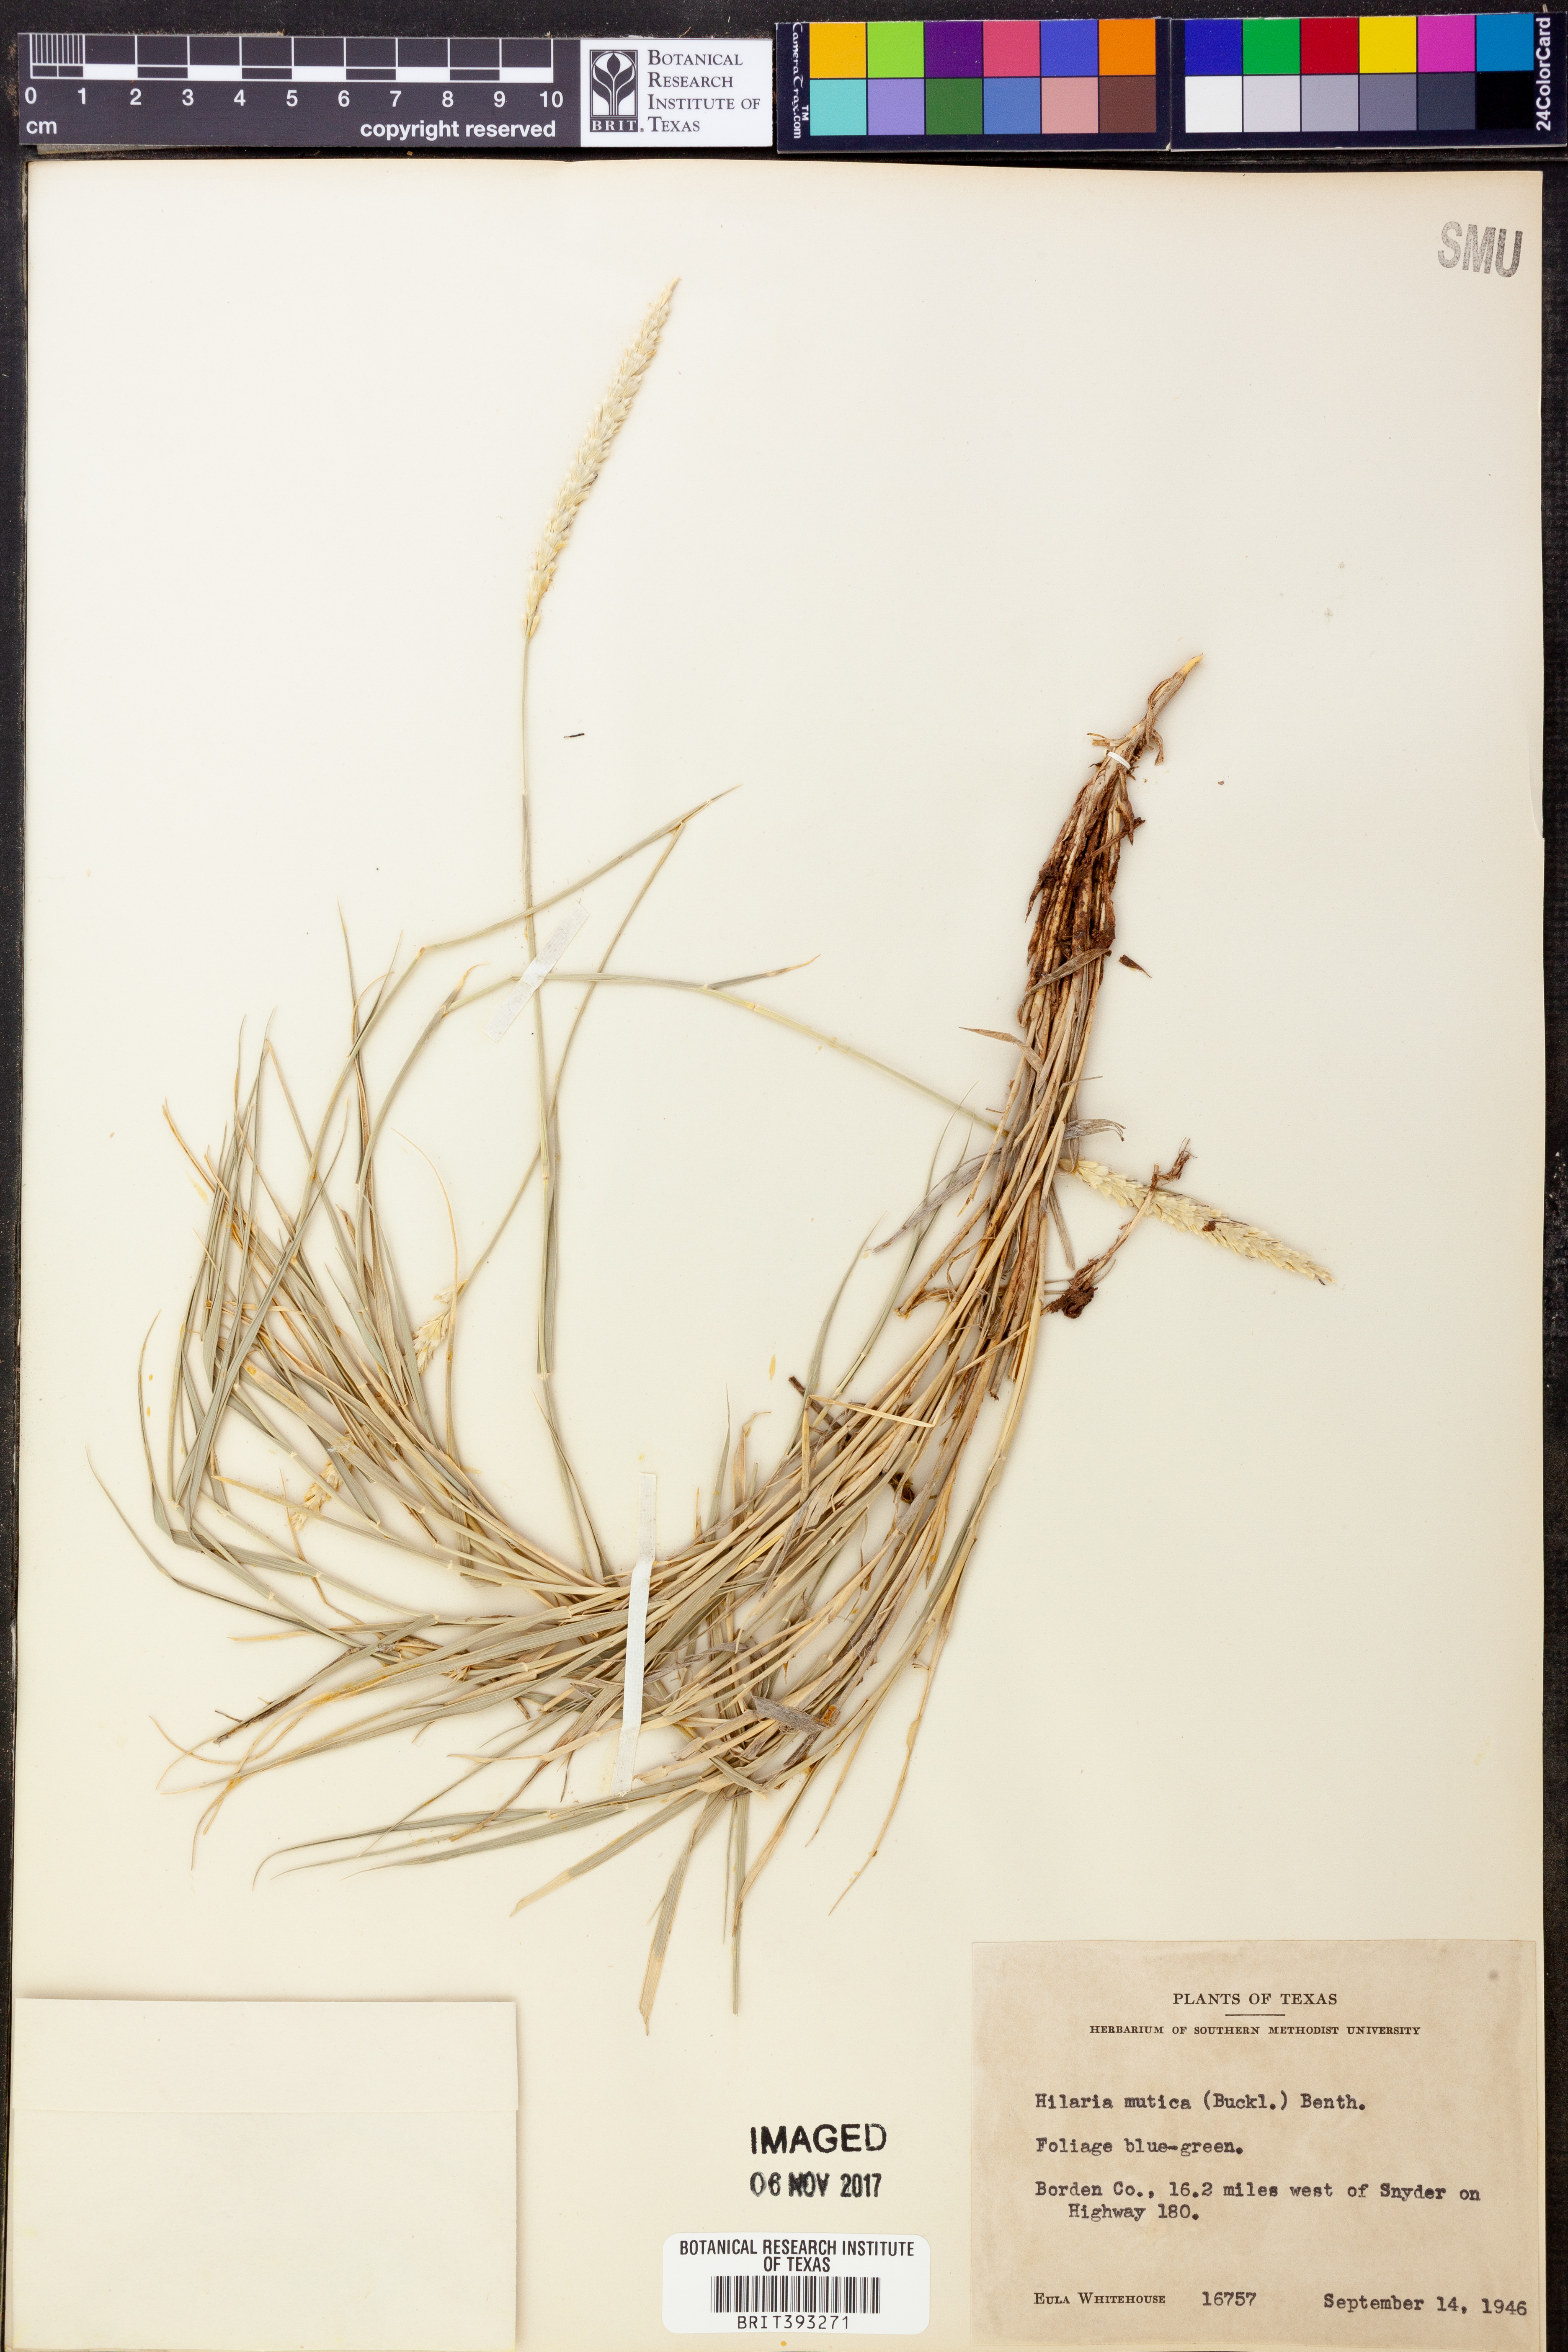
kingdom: Plantae
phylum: Tracheophyta
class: Liliopsida
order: Poales
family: Poaceae
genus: Hilaria
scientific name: Hilaria mutica
